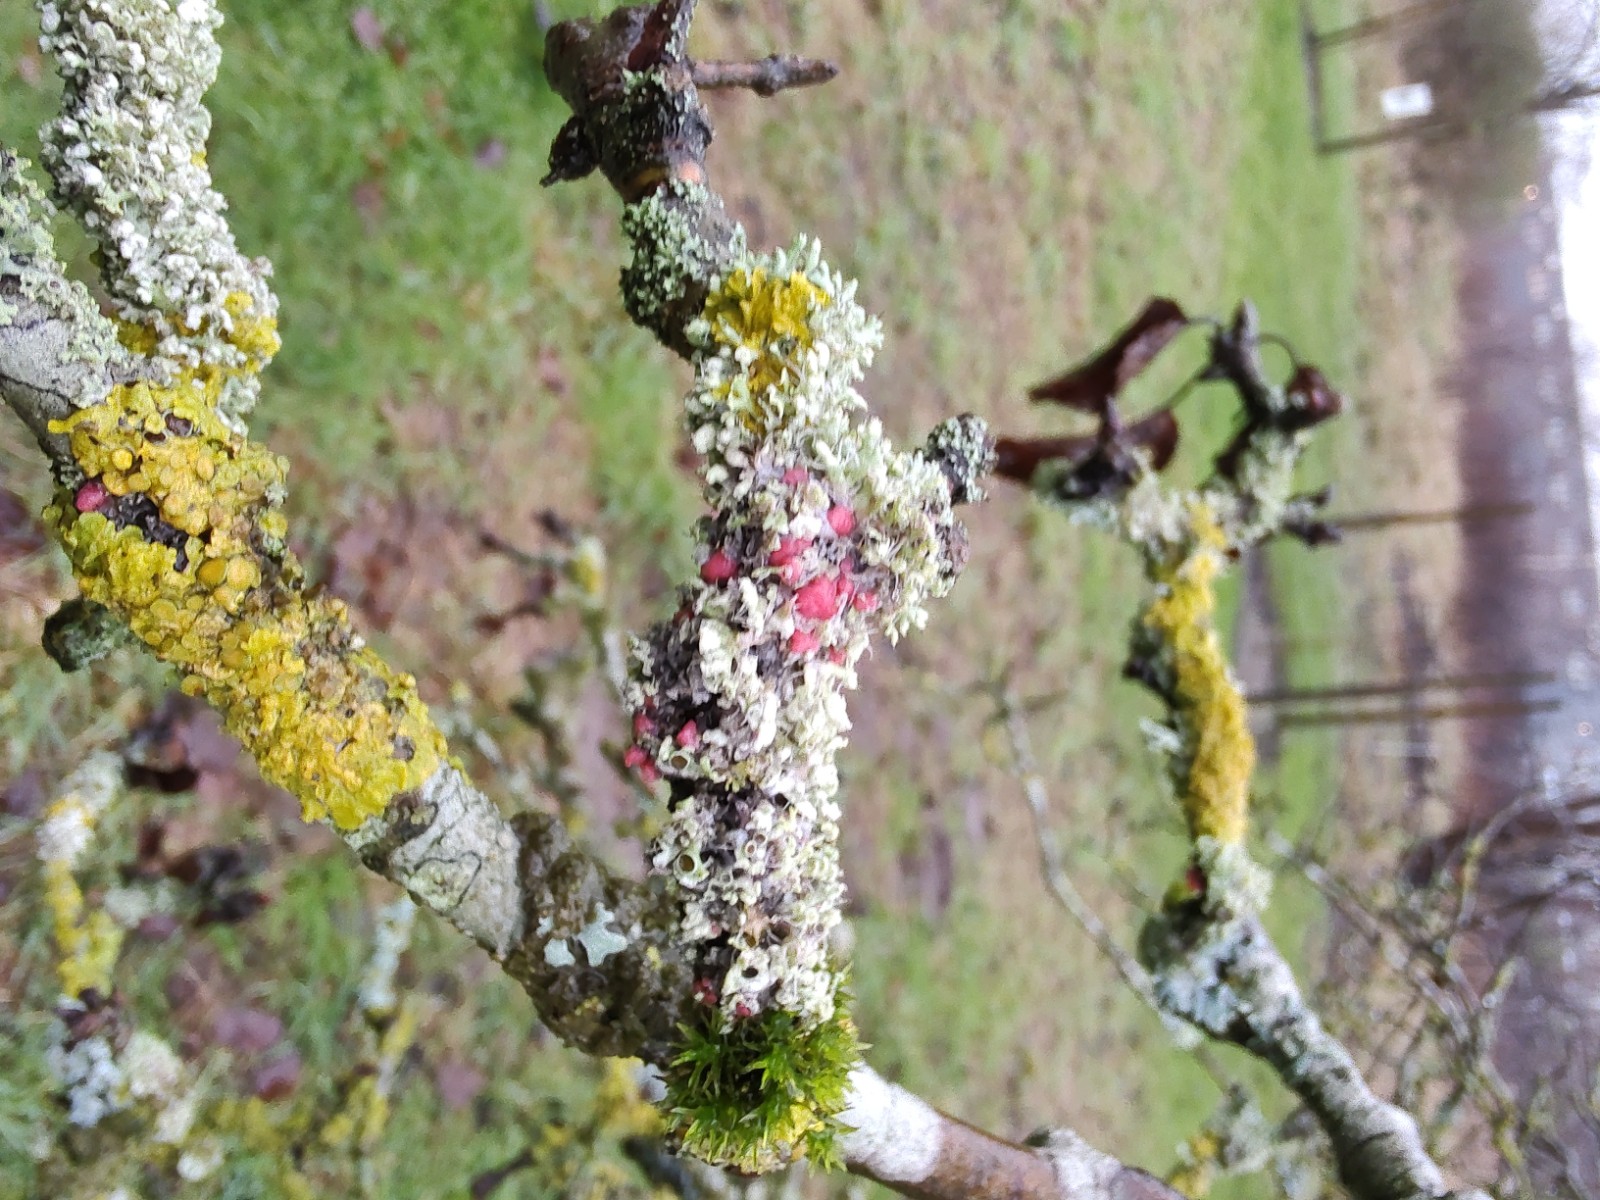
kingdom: Fungi
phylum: Ascomycota
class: Sordariomycetes
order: Hypocreales
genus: Illosporiopsis
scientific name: Illosporiopsis christiansenii
